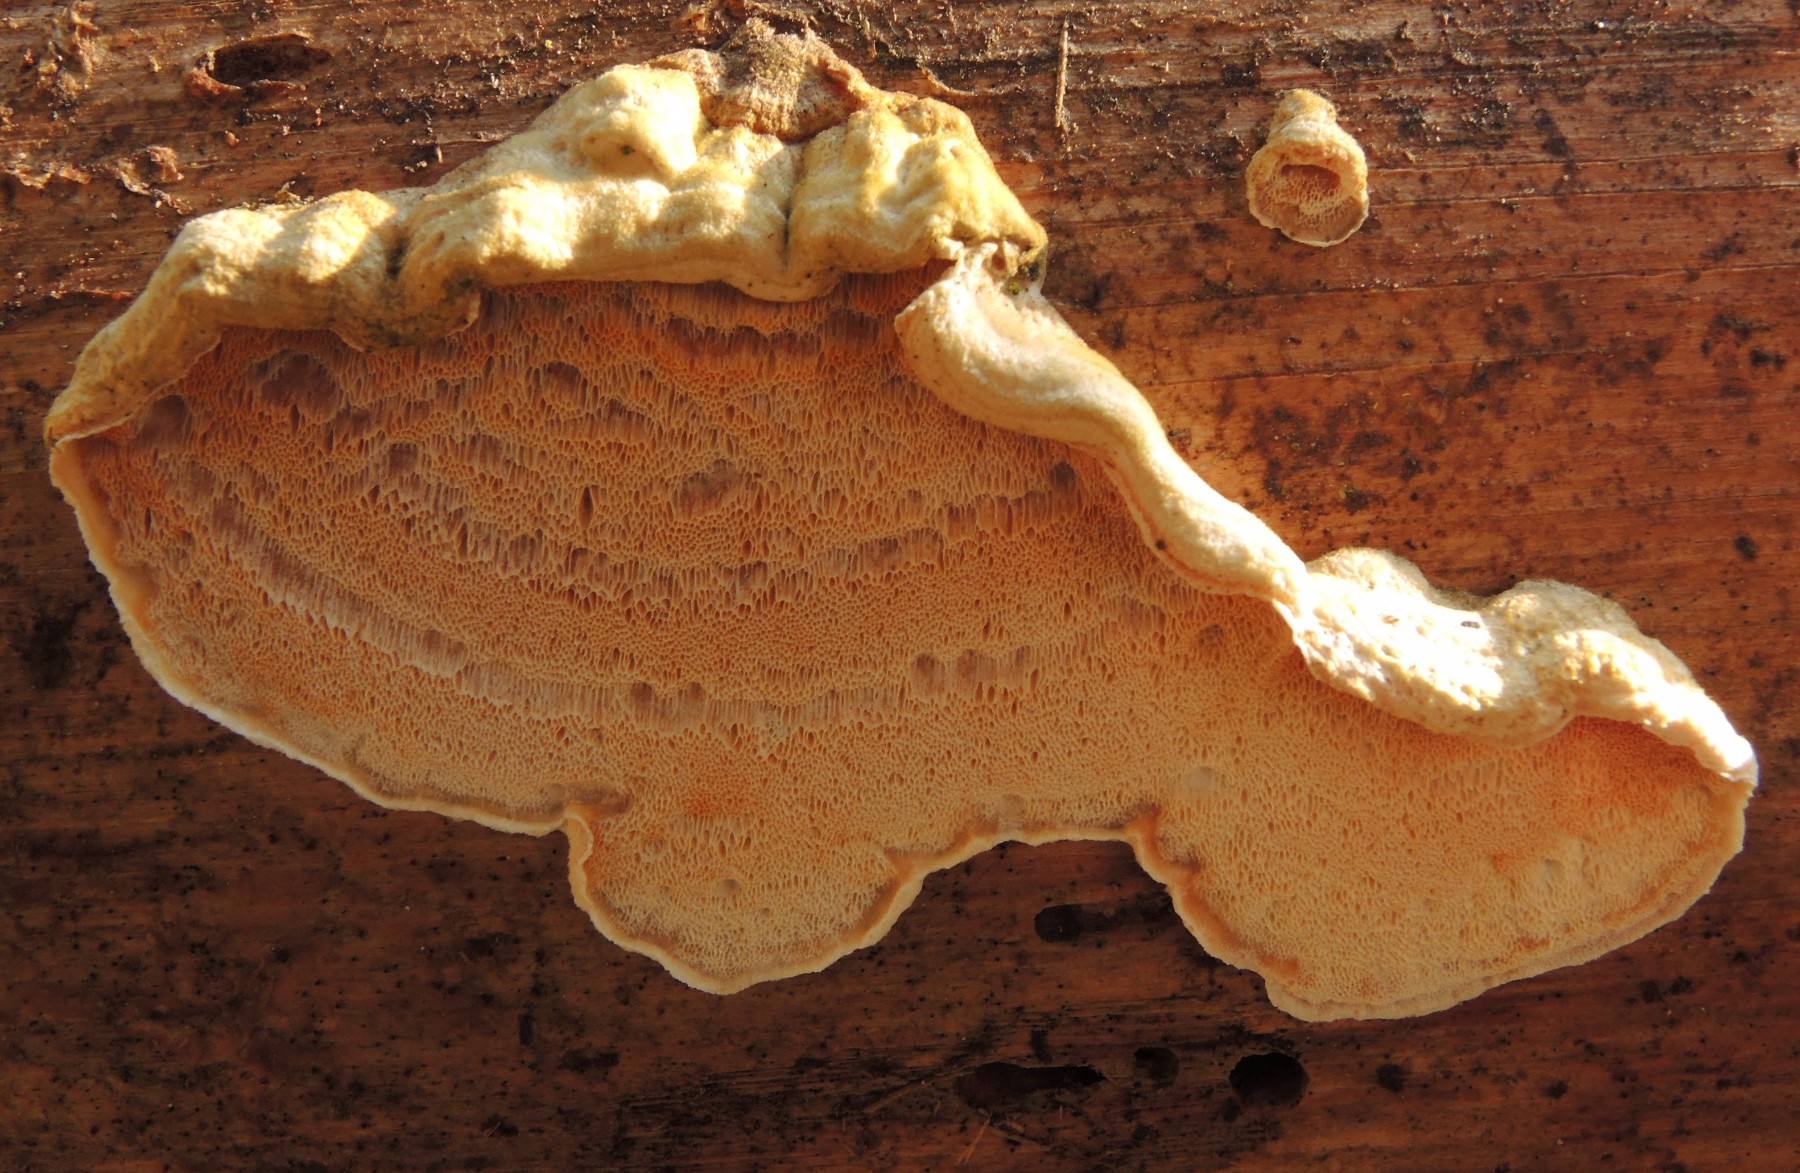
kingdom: Fungi
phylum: Basidiomycota
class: Agaricomycetes
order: Polyporales
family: Incrustoporiaceae
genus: Skeletocutis
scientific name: Skeletocutis amorpha
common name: orange krystalporesvamp
